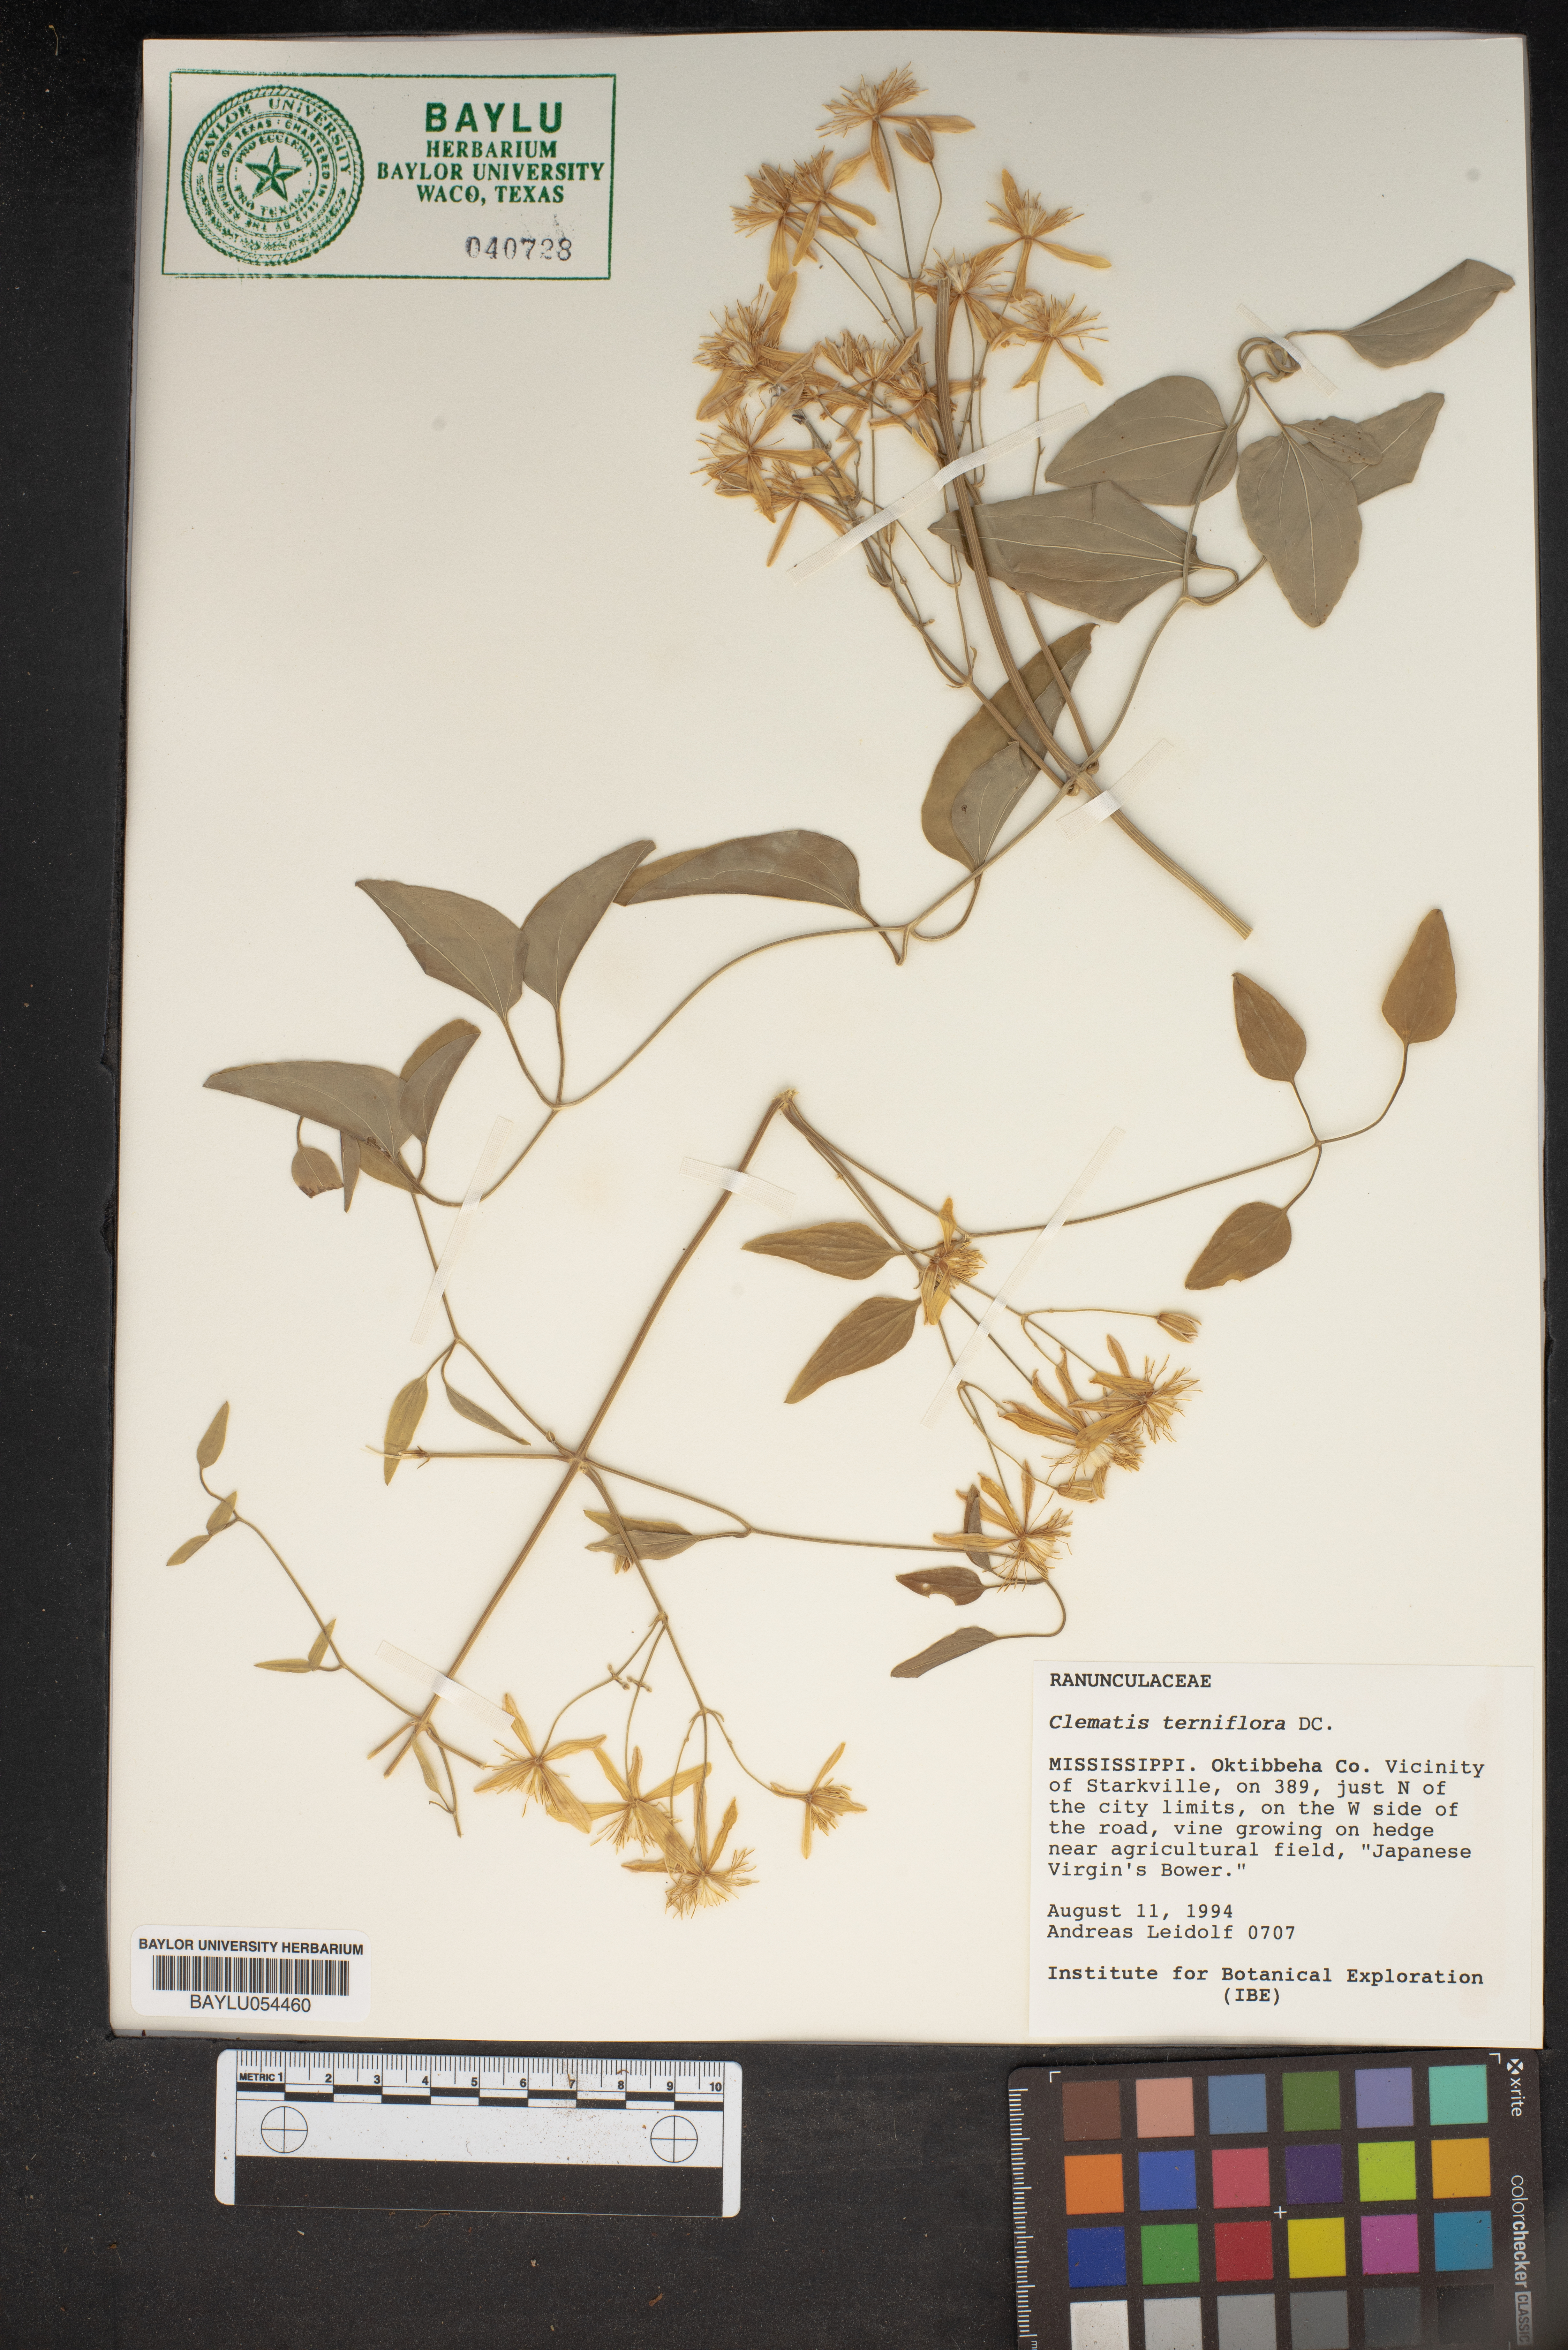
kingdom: Plantae
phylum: Tracheophyta
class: Magnoliopsida
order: Ranunculales
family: Ranunculaceae
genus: Clematis
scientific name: Clematis terniflora
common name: Sweet autumn clematis
